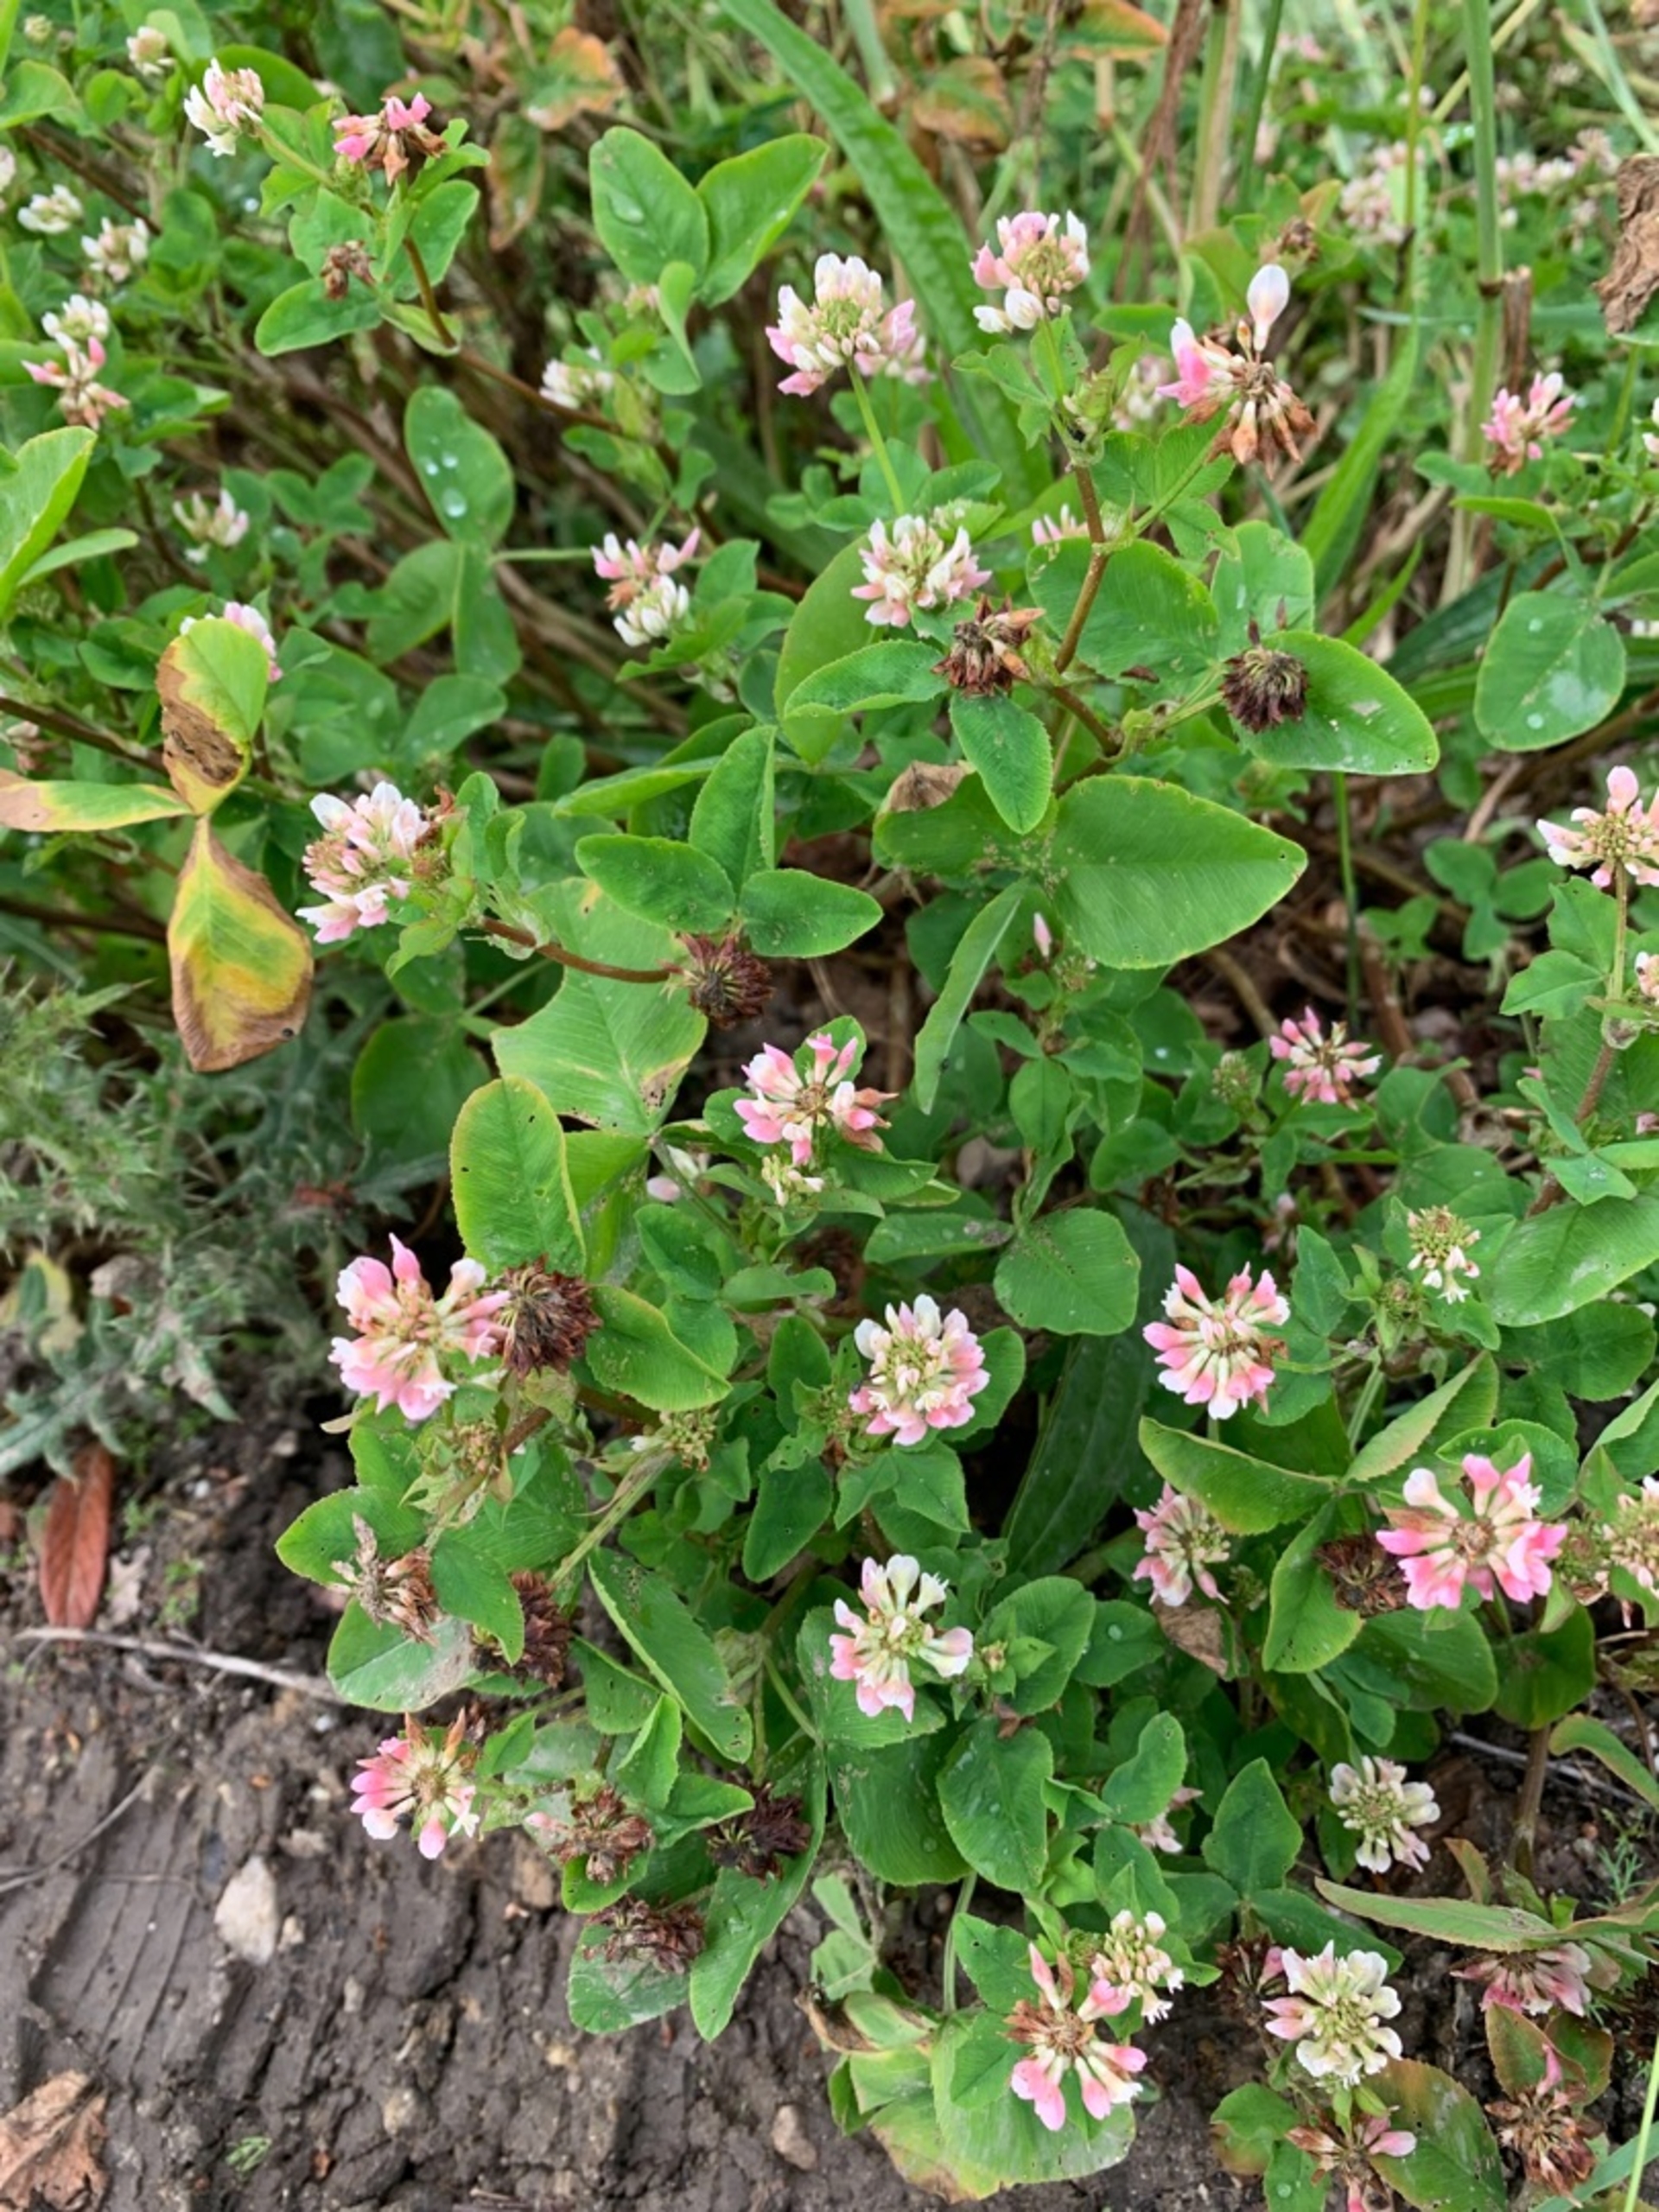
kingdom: Plantae
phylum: Tracheophyta
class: Magnoliopsida
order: Fabales
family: Fabaceae
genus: Trifolium
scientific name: Trifolium hybridum
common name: Alsike-kløver
